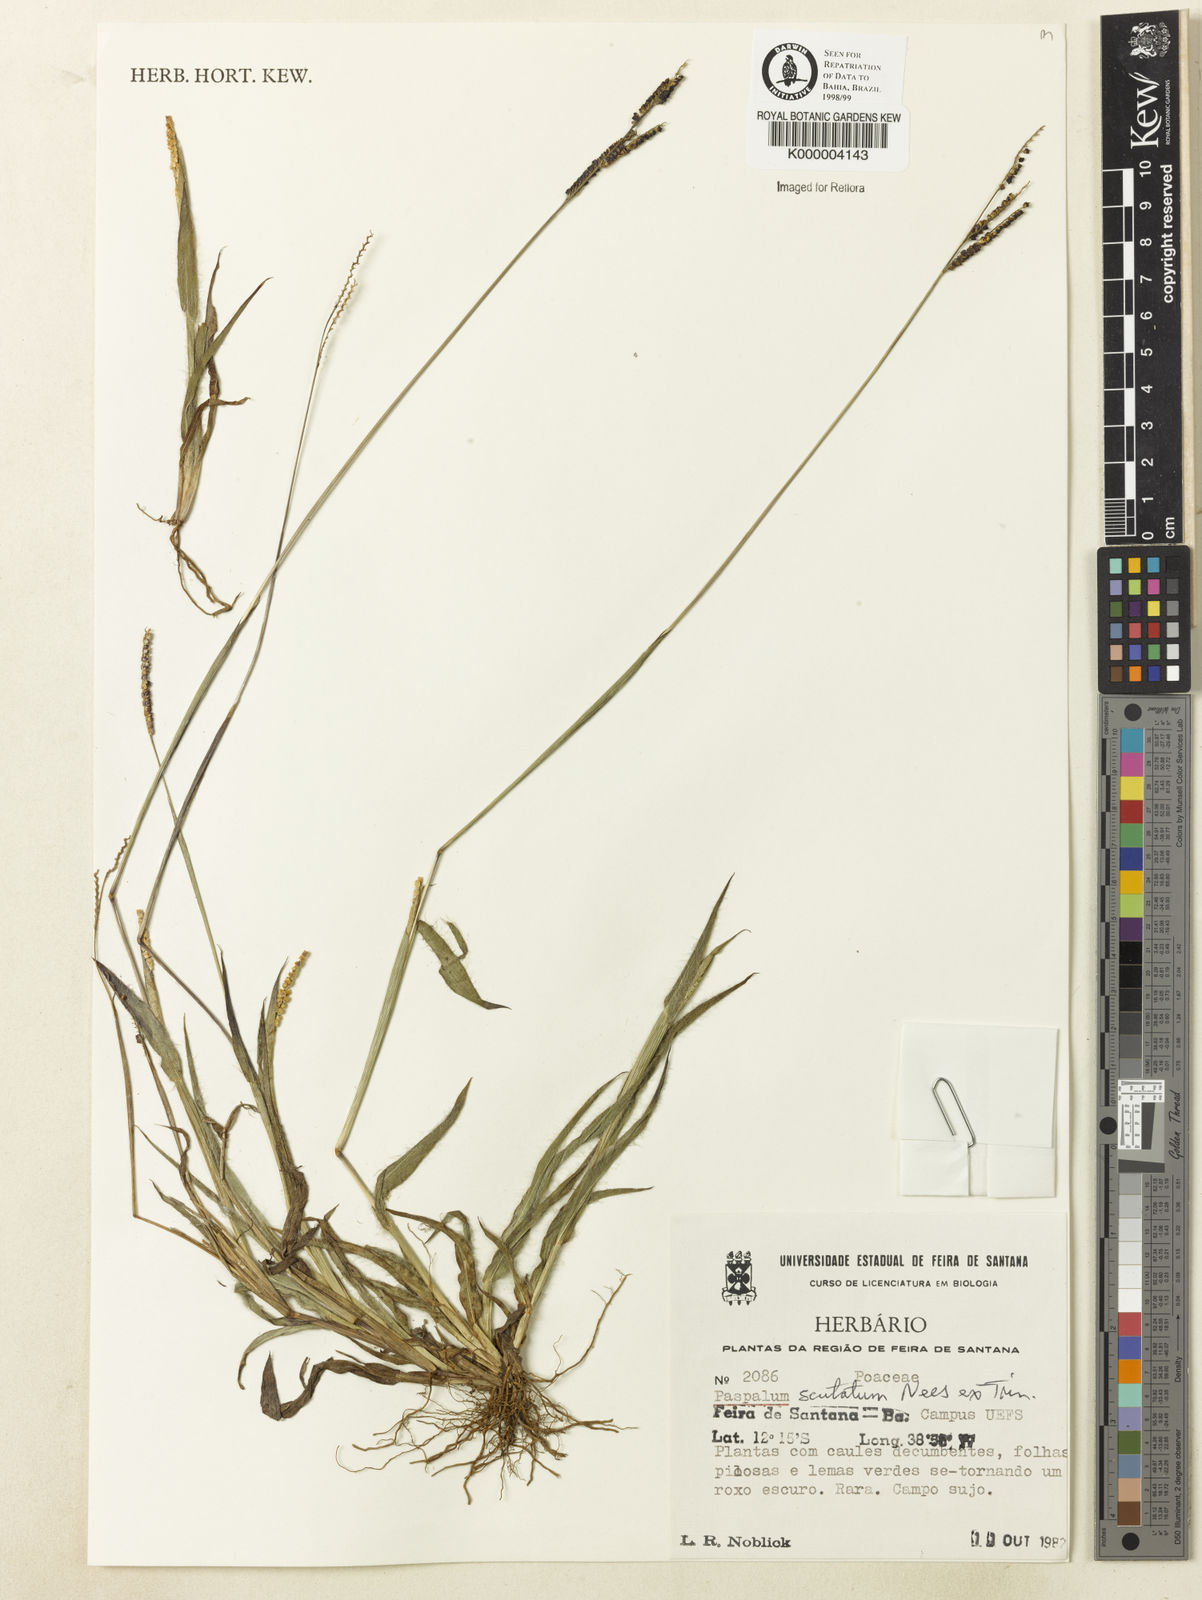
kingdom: Plantae
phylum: Tracheophyta
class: Liliopsida
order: Poales
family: Poaceae
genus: Paspalum
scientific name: Paspalum
